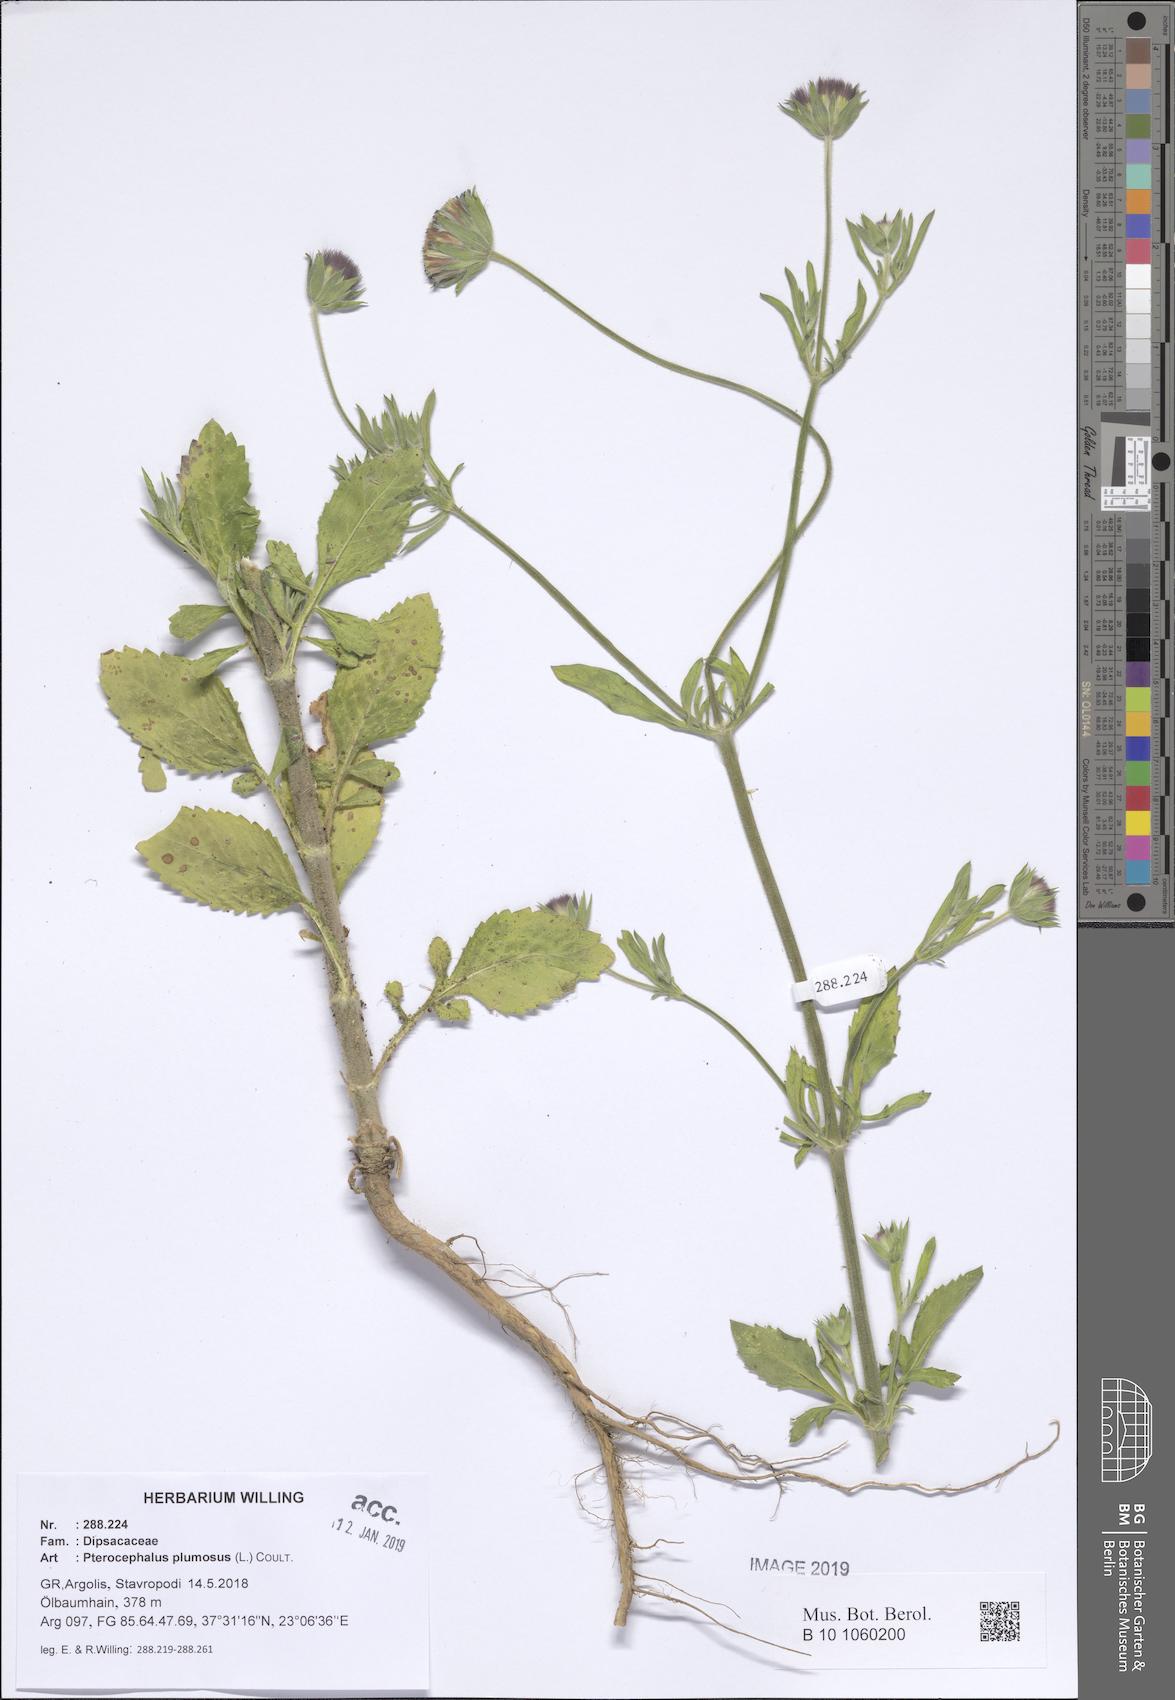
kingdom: Plantae
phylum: Tracheophyta
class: Magnoliopsida
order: Dipsacales
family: Caprifoliaceae
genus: Pterocephalus
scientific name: Pterocephalus plumosus
